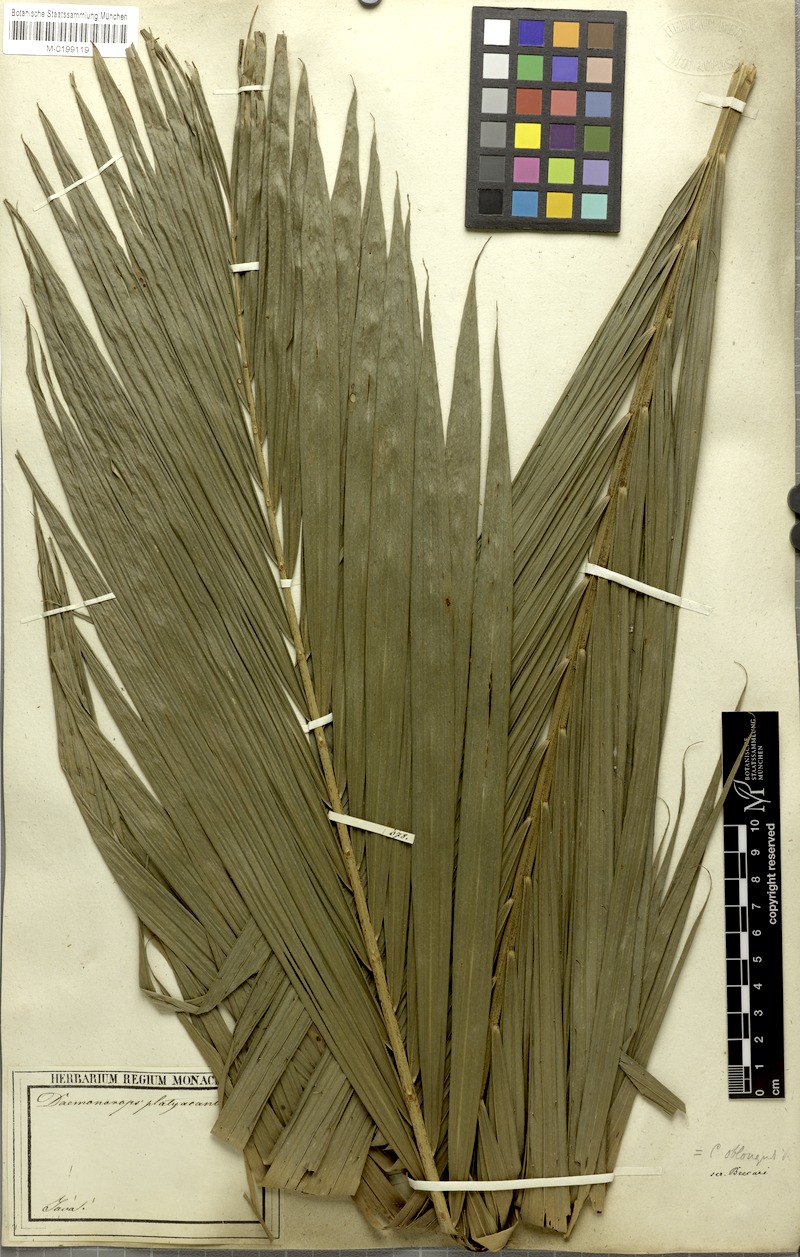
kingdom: Plantae
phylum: Tracheophyta
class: Liliopsida
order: Arecales
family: Arecaceae
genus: Calamus
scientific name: Calamus oblongus
